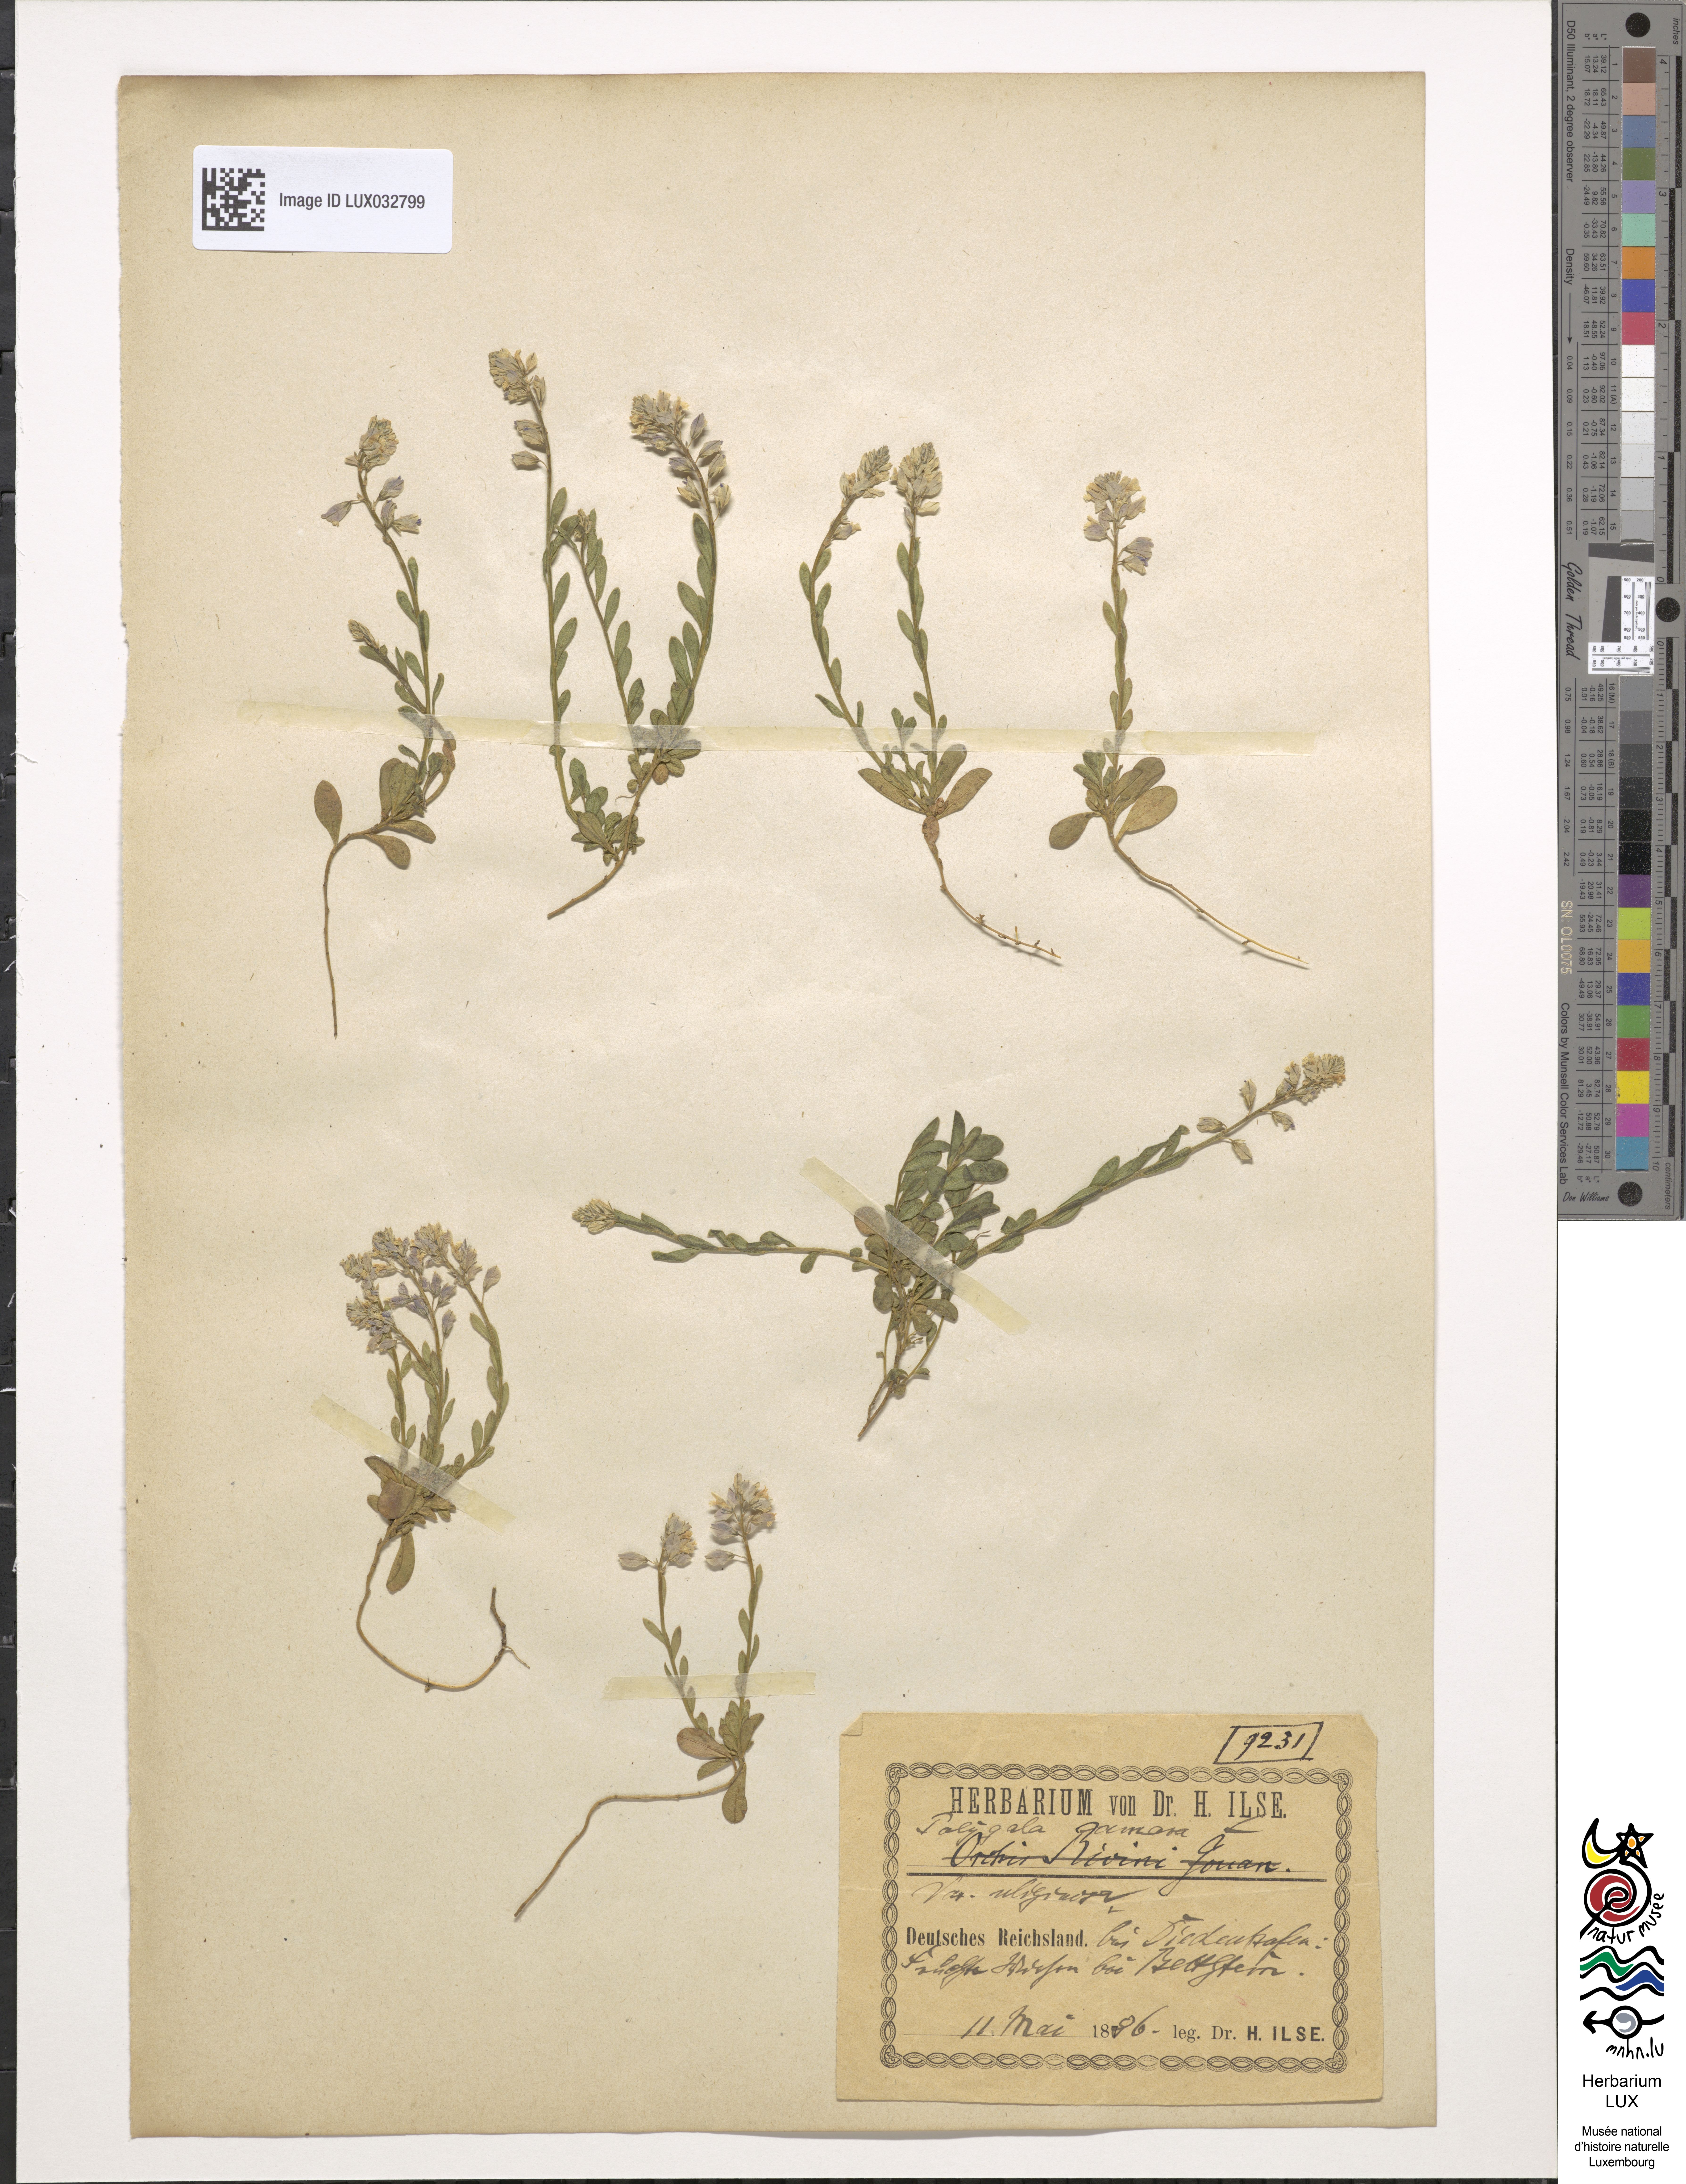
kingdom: Plantae
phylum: Tracheophyta
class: Magnoliopsida
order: Fabales
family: Polygalaceae
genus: Polygala
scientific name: Polygala amarella
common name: Dwarf milkwort
